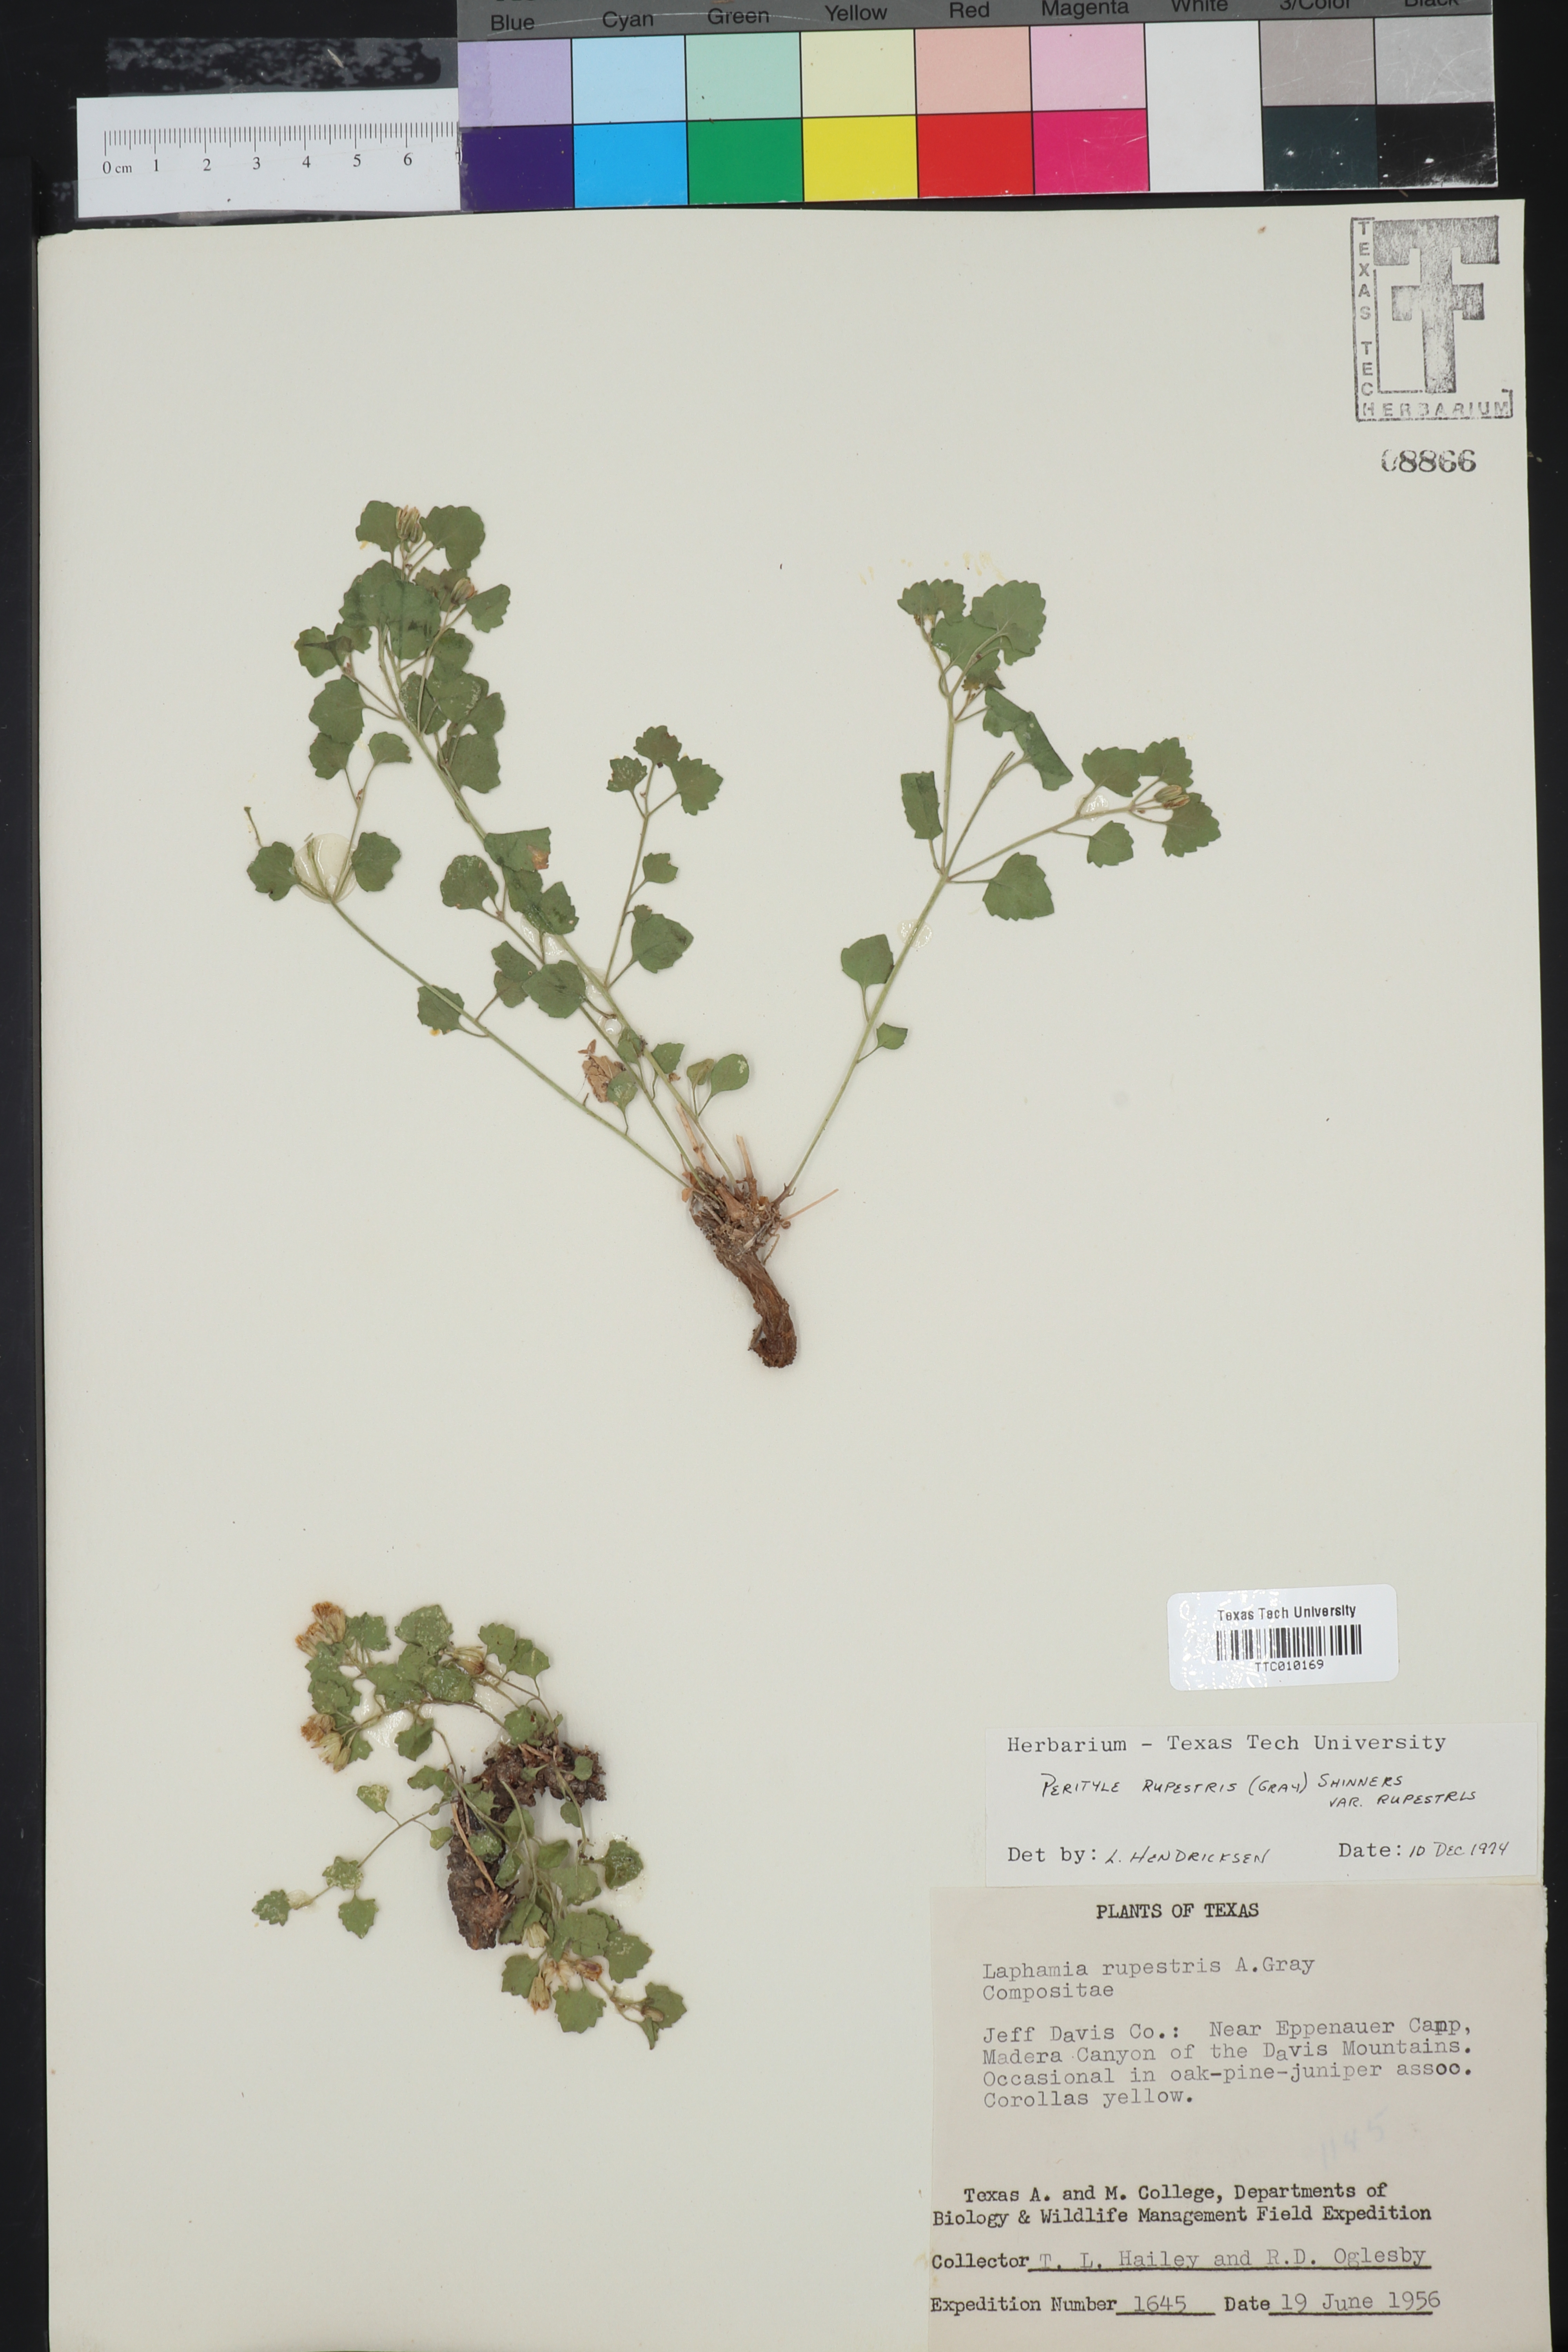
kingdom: Plantae
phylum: Tracheophyta
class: Magnoliopsida
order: Asterales
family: Asteraceae
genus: Laphamia
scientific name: Laphamia rupestris
